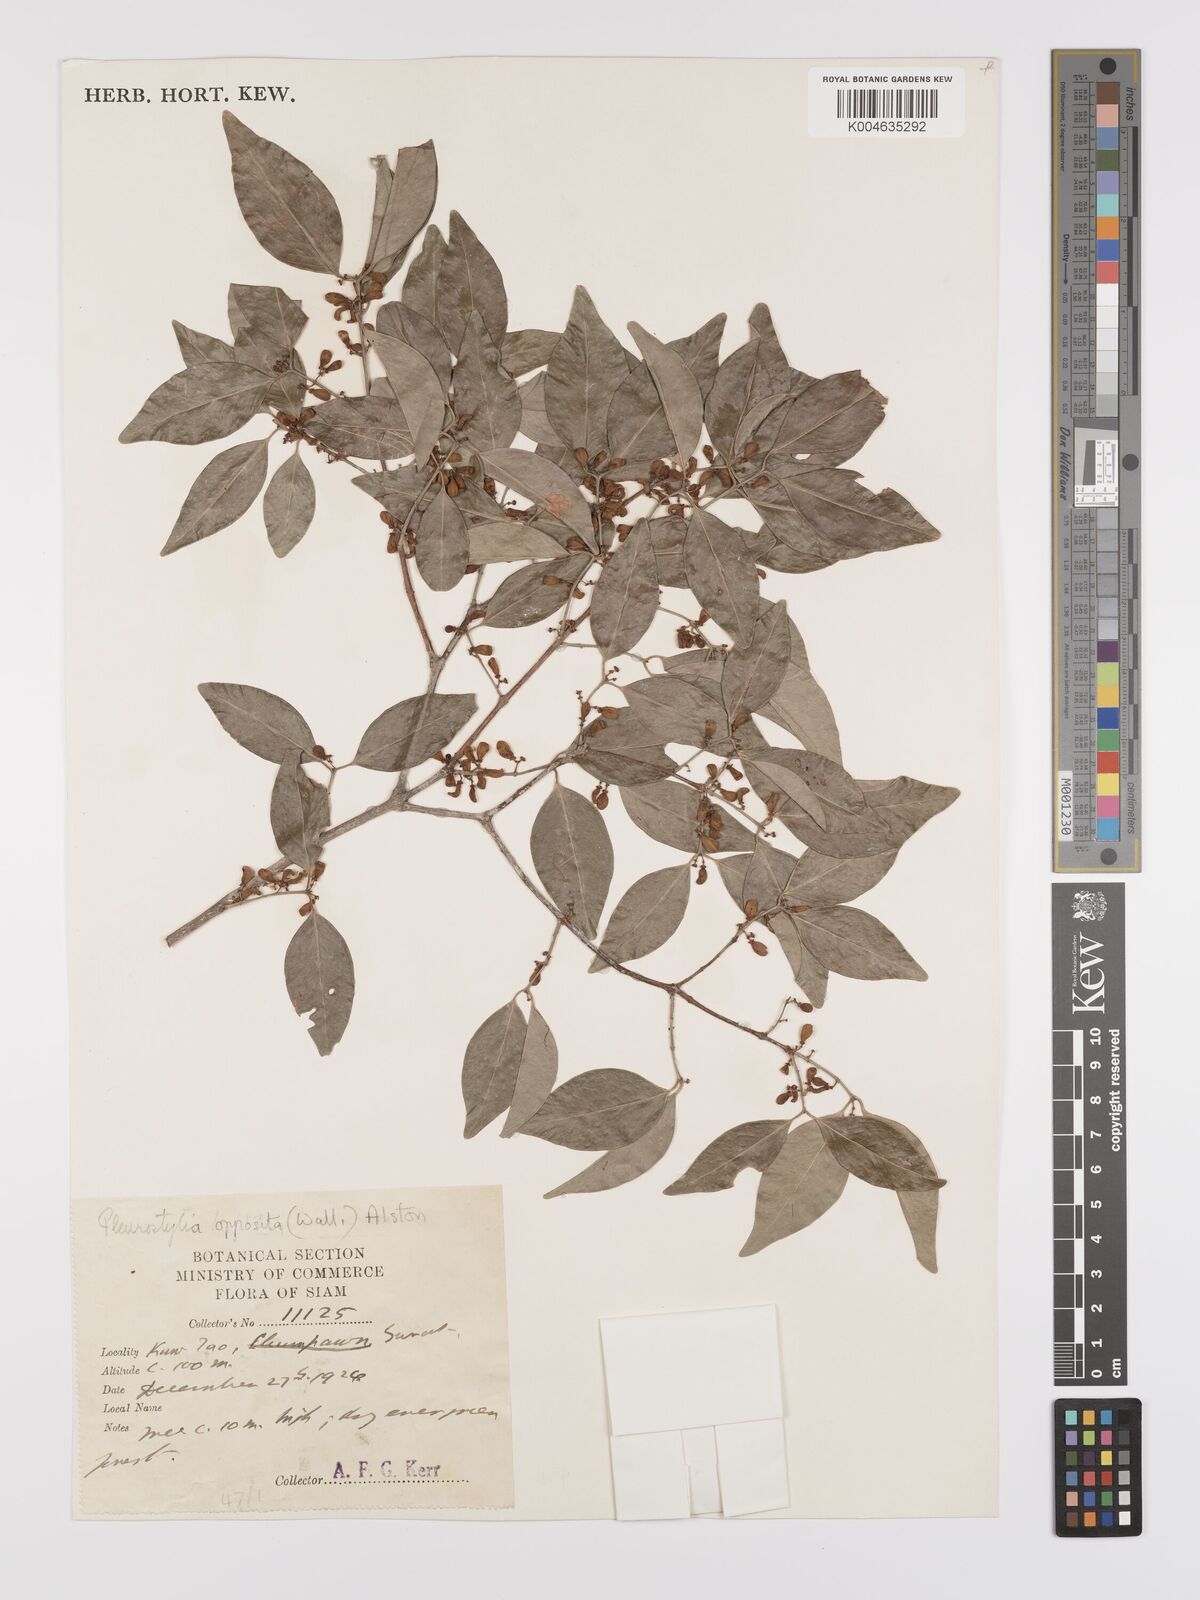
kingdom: Plantae
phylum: Tracheophyta
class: Magnoliopsida
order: Celastrales
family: Celastraceae
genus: Pleurostylia
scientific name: Pleurostylia opposita
